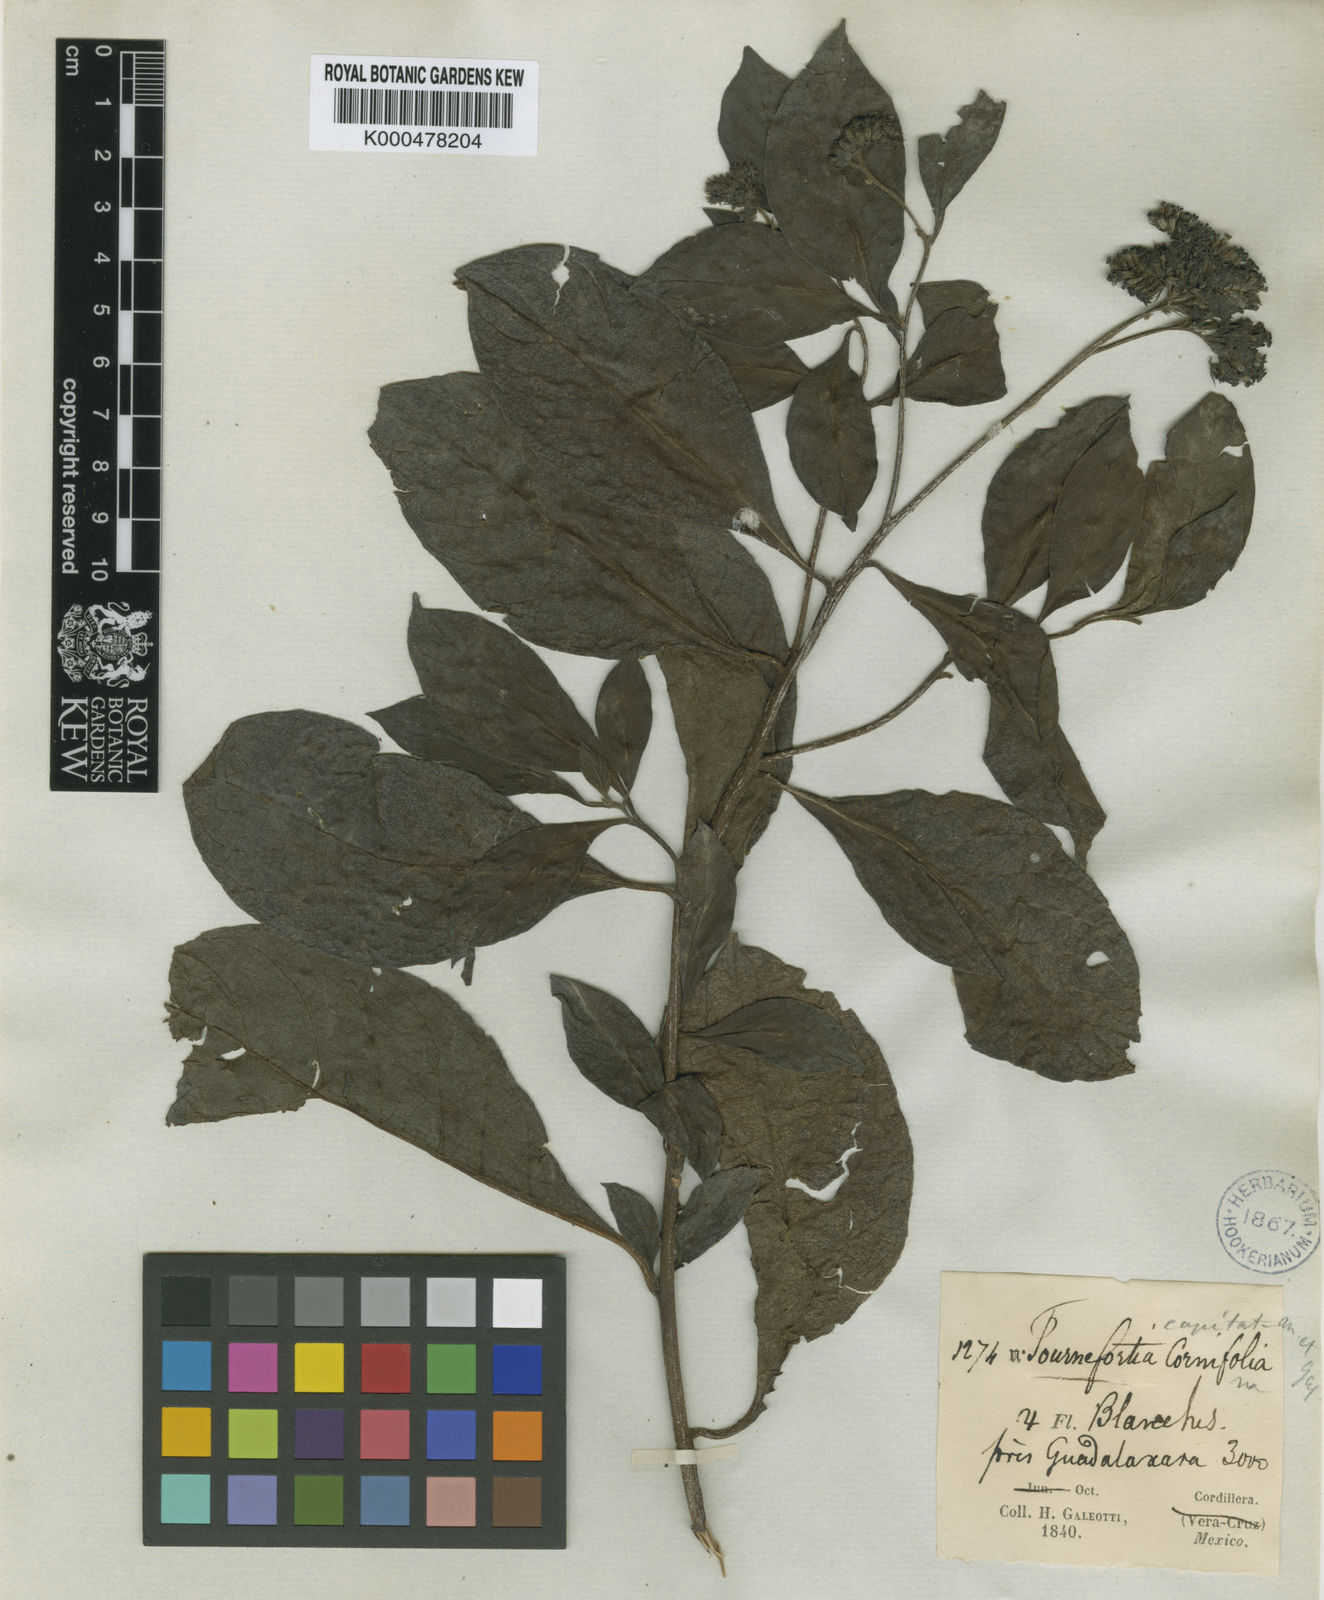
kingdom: Plantae
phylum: Tracheophyta
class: Magnoliopsida
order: Boraginales
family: Heliotropiaceae
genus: Tournefortia
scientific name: Tournefortia capitata
